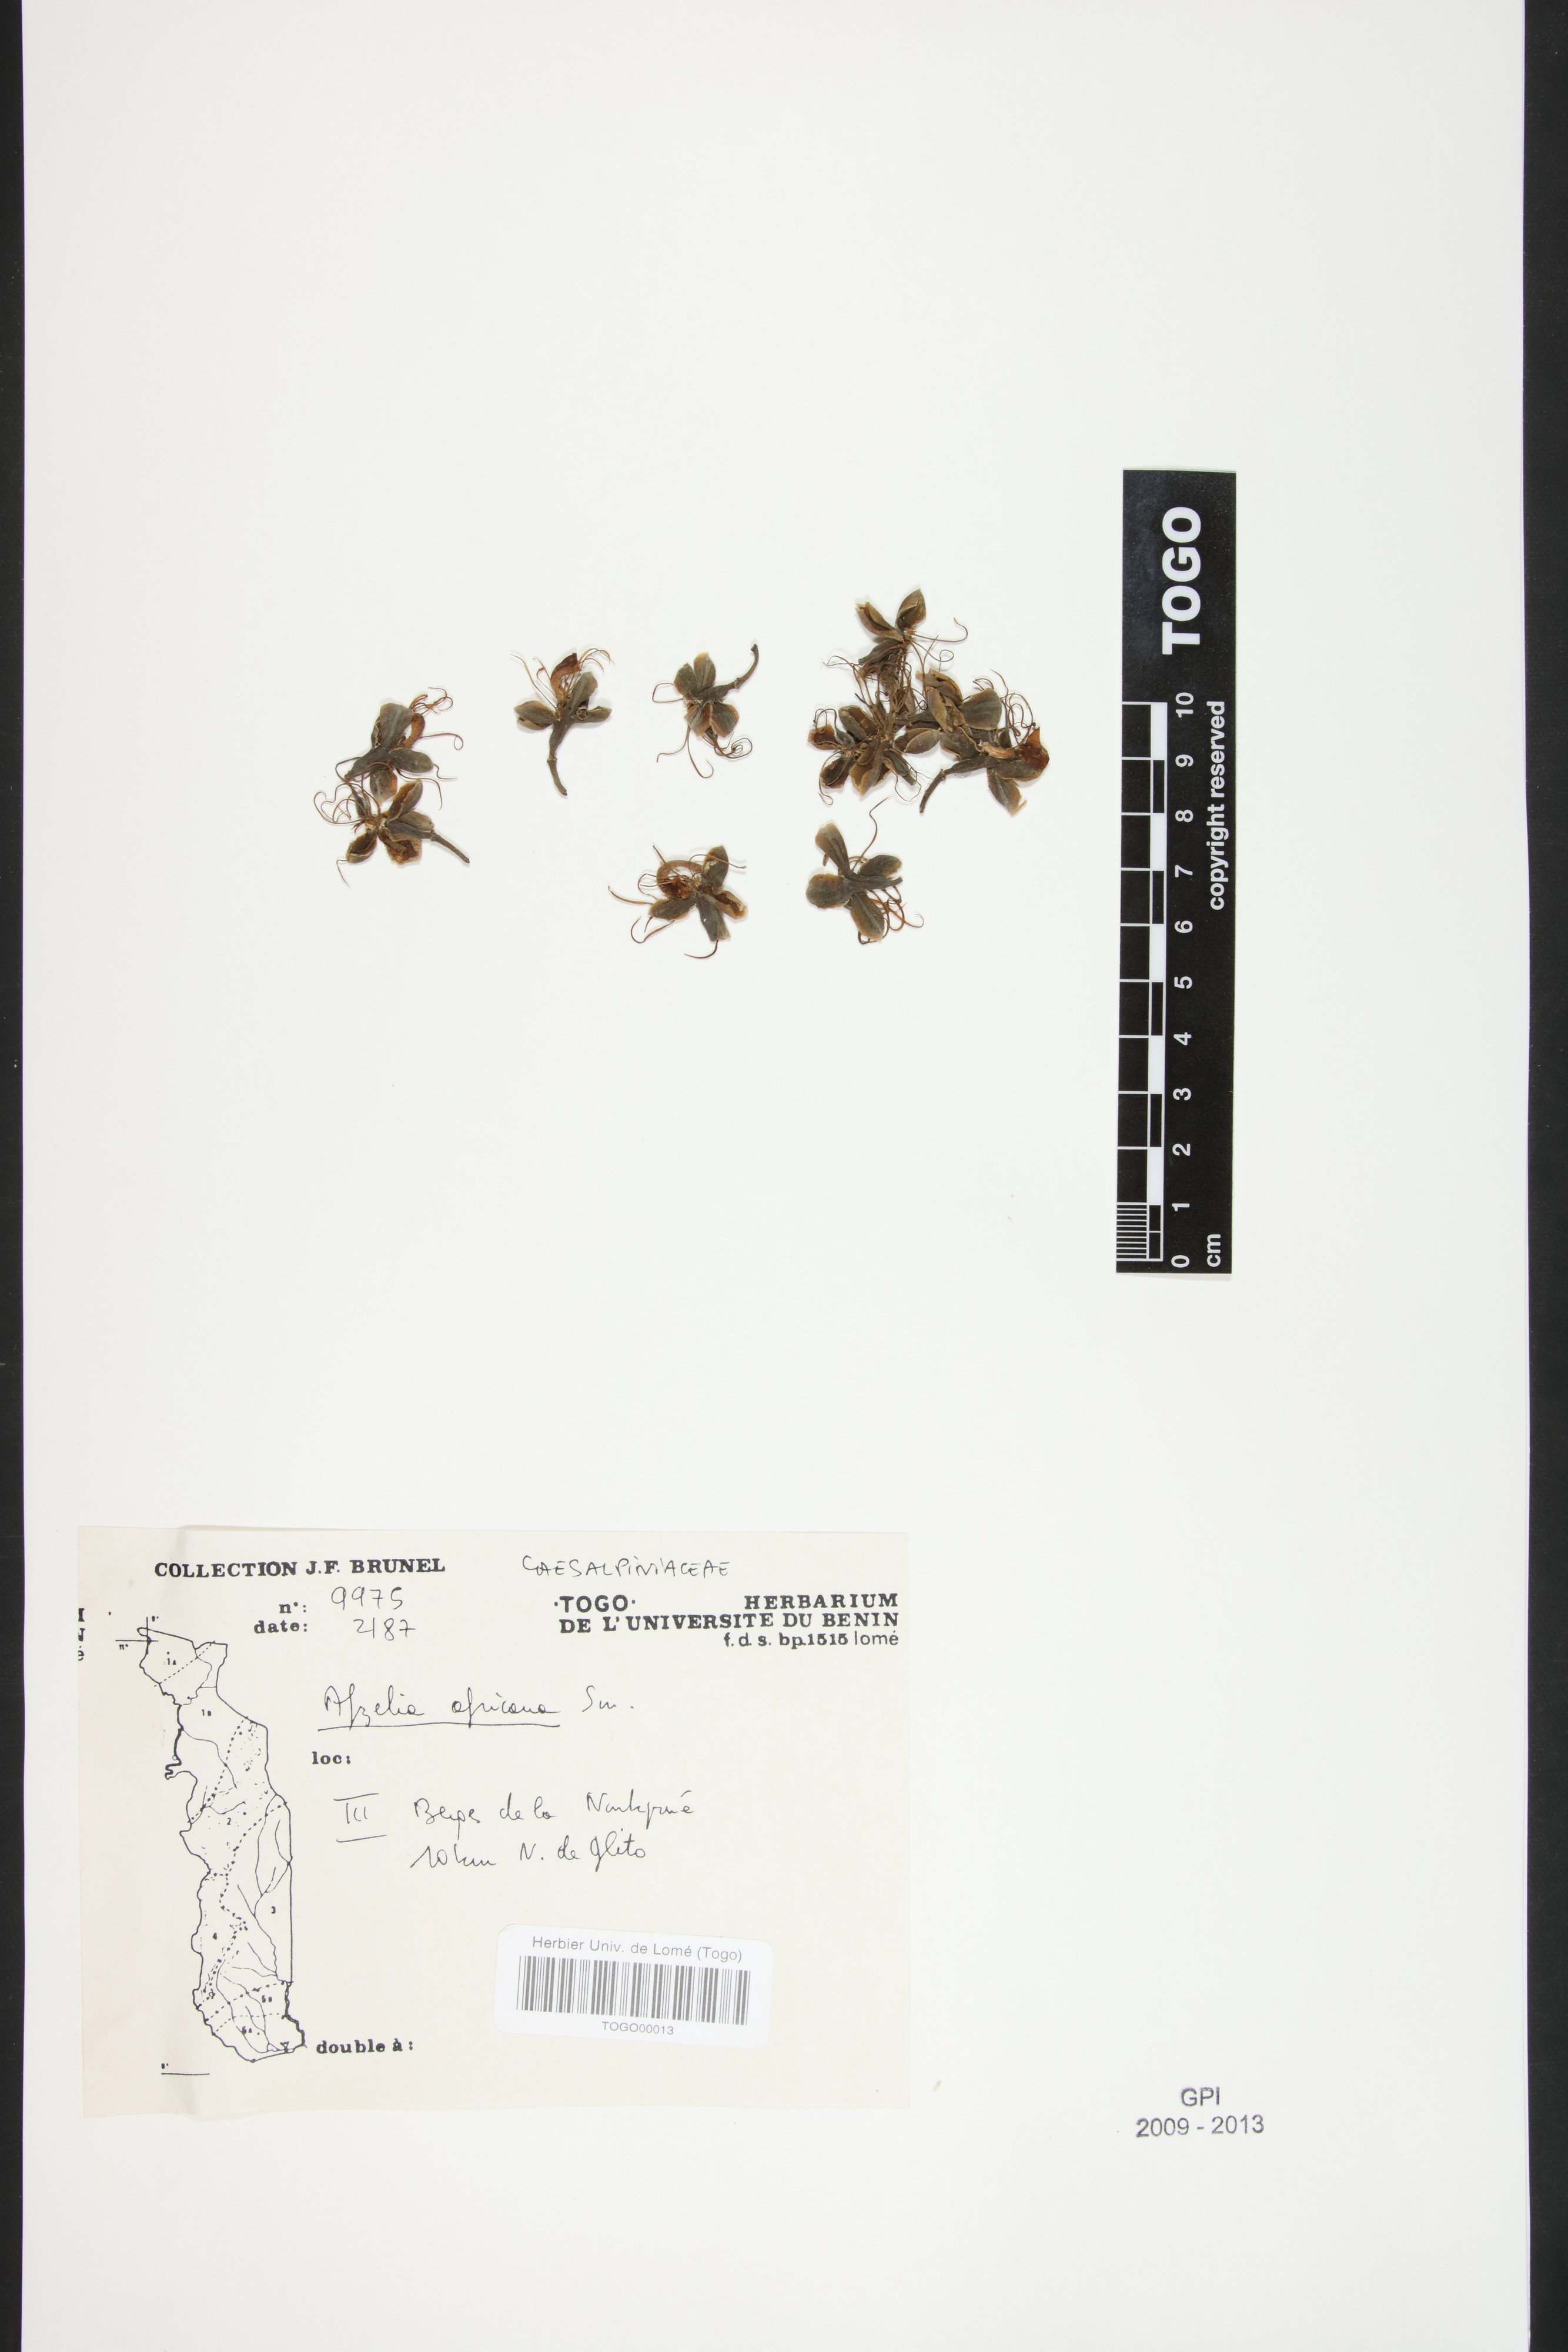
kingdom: Plantae
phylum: Tracheophyta
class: Magnoliopsida
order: Fabales
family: Fabaceae
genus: Afzelia
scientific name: Afzelia africana
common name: African-mahogany
